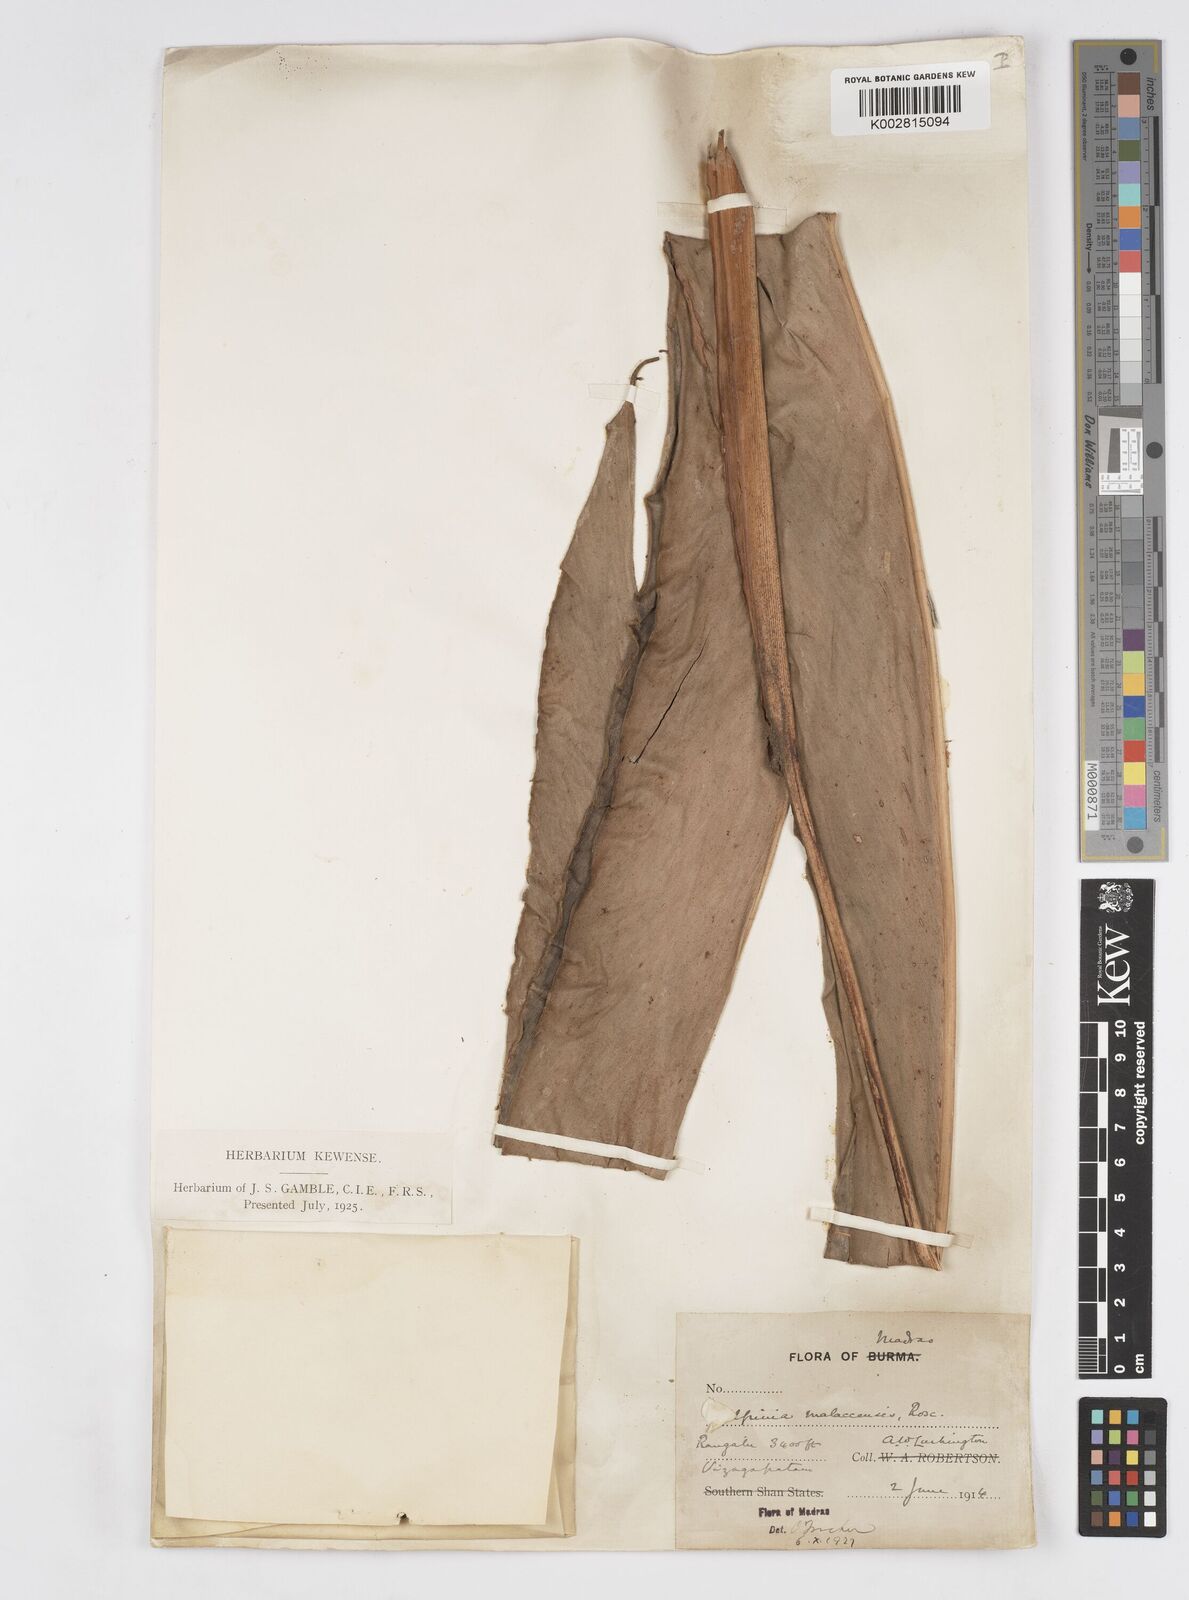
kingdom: Plantae
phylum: Tracheophyta
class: Liliopsida
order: Zingiberales
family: Zingiberaceae
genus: Alpinia
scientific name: Alpinia malaccensis
